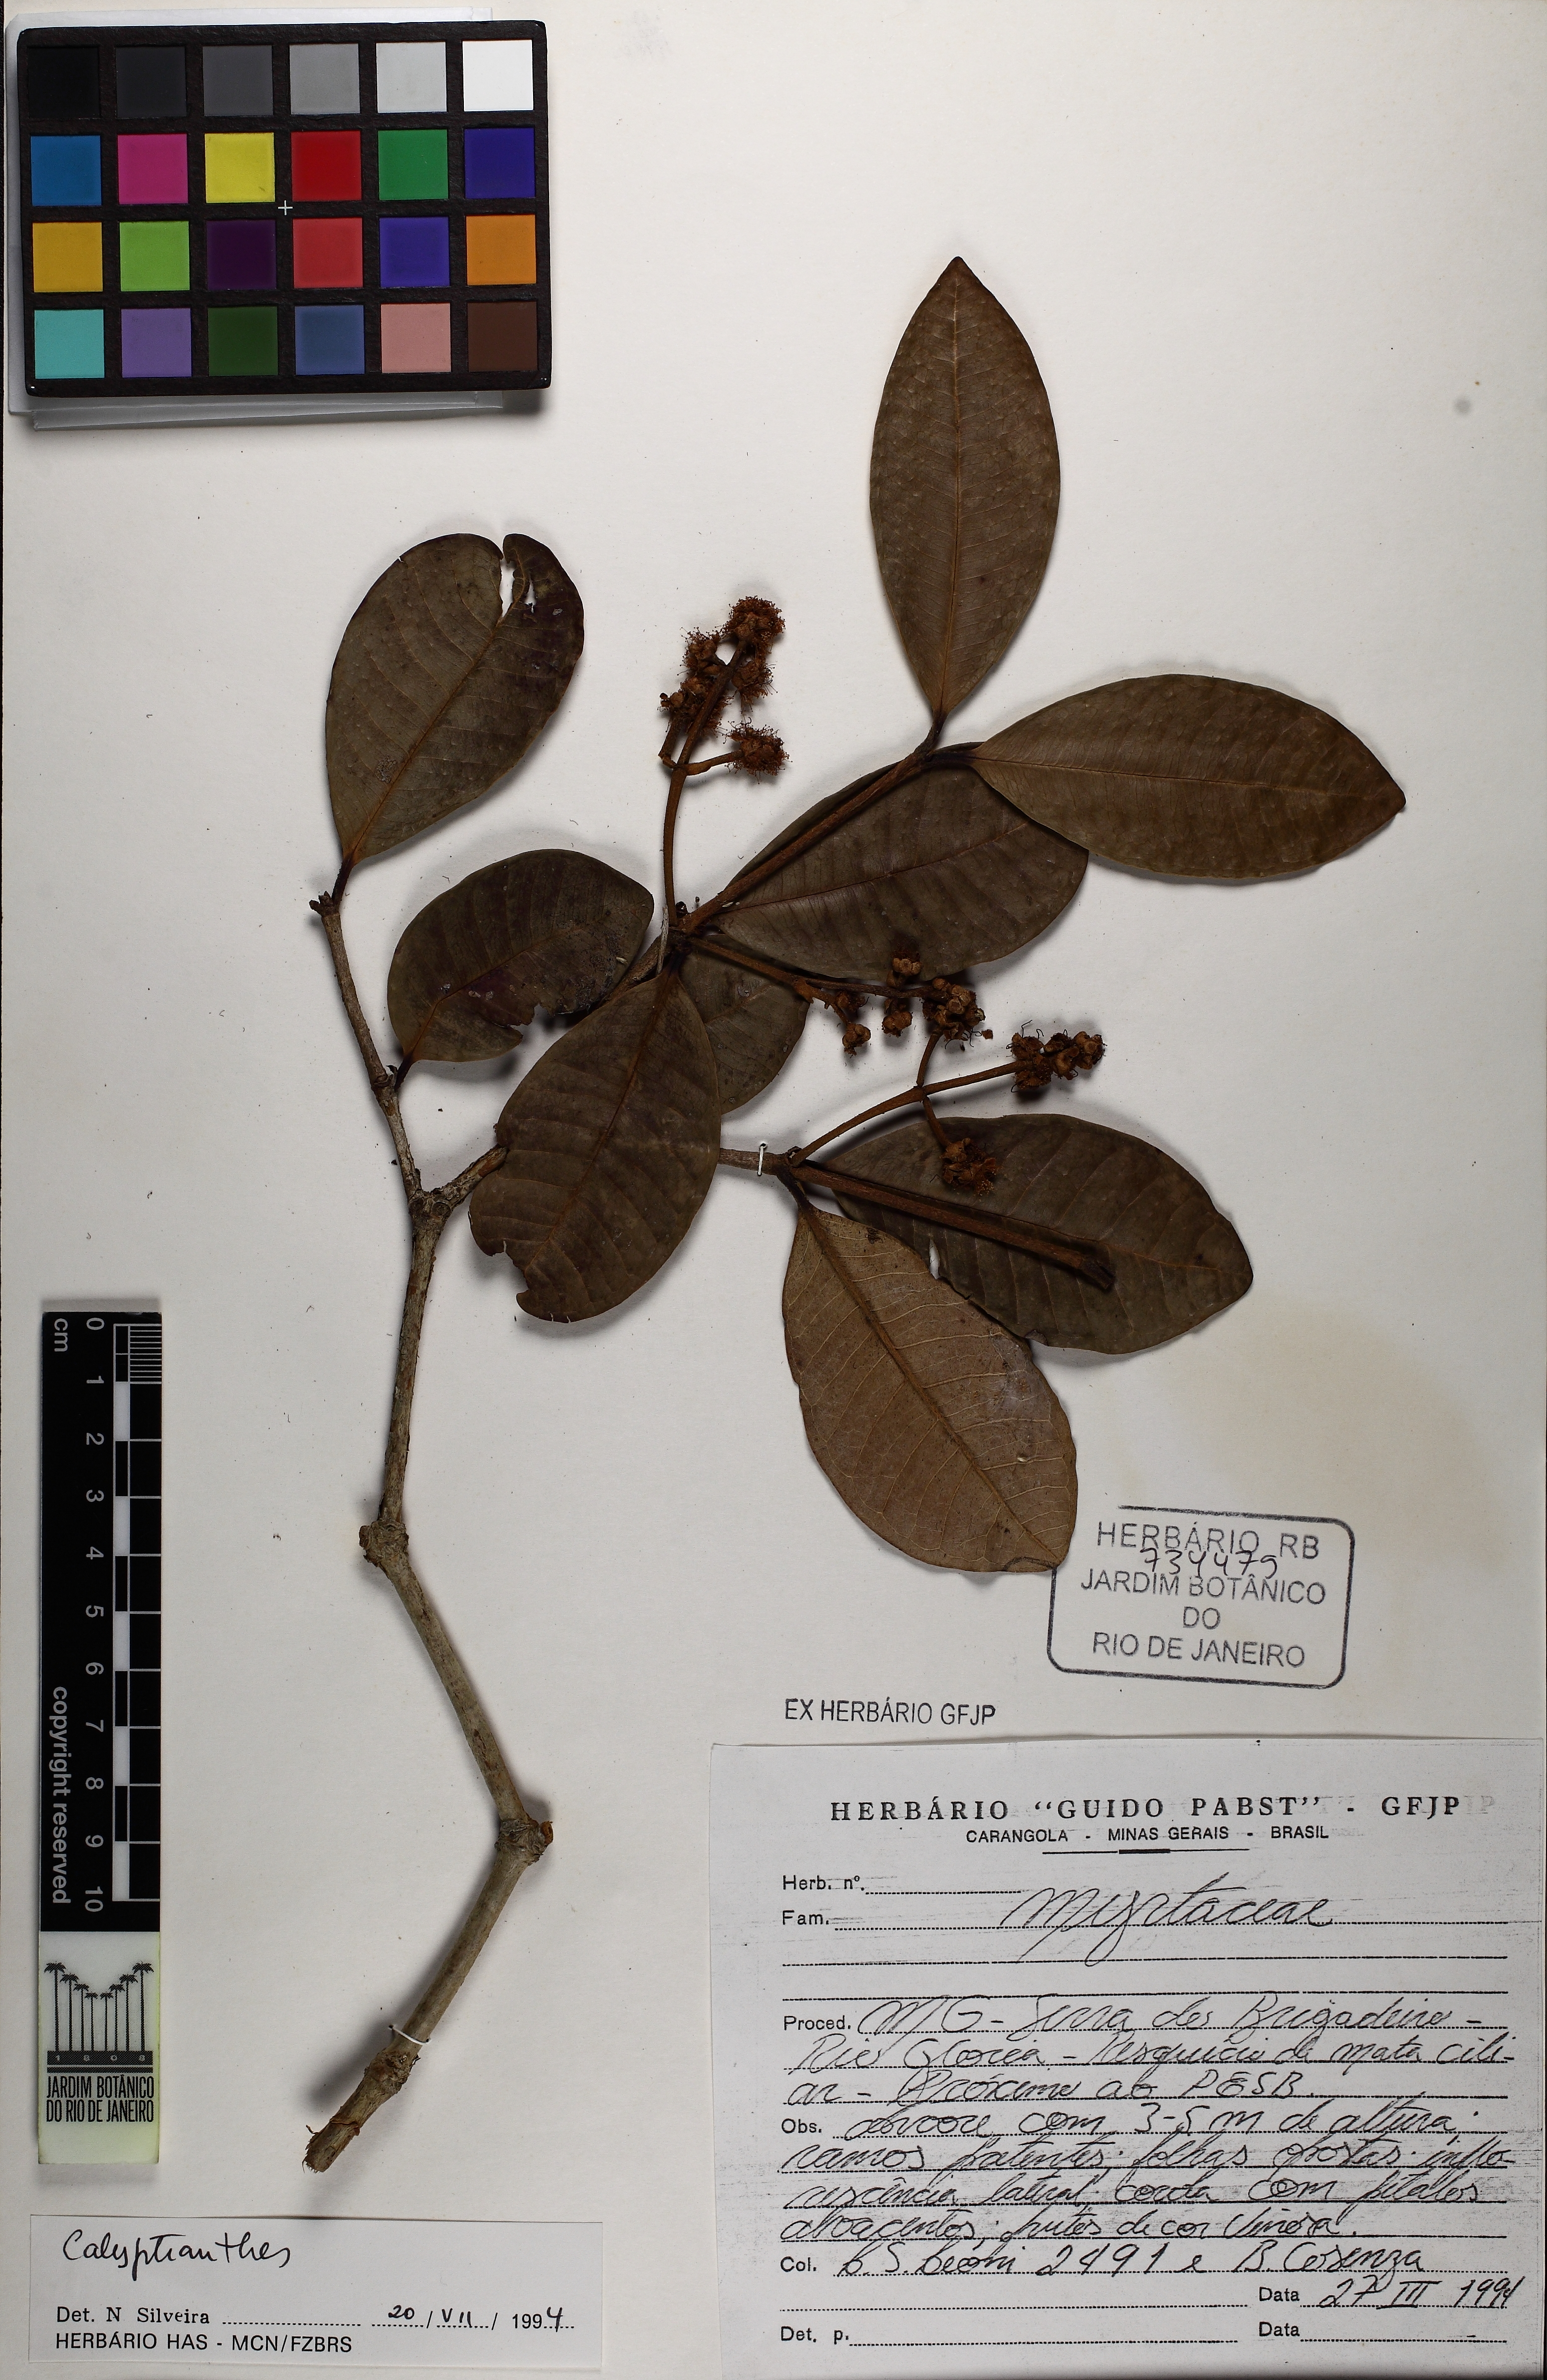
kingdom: Plantae
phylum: Tracheophyta
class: Magnoliopsida
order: Myrtales
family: Myrtaceae
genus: Calyptranthes
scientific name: Calyptranthes
